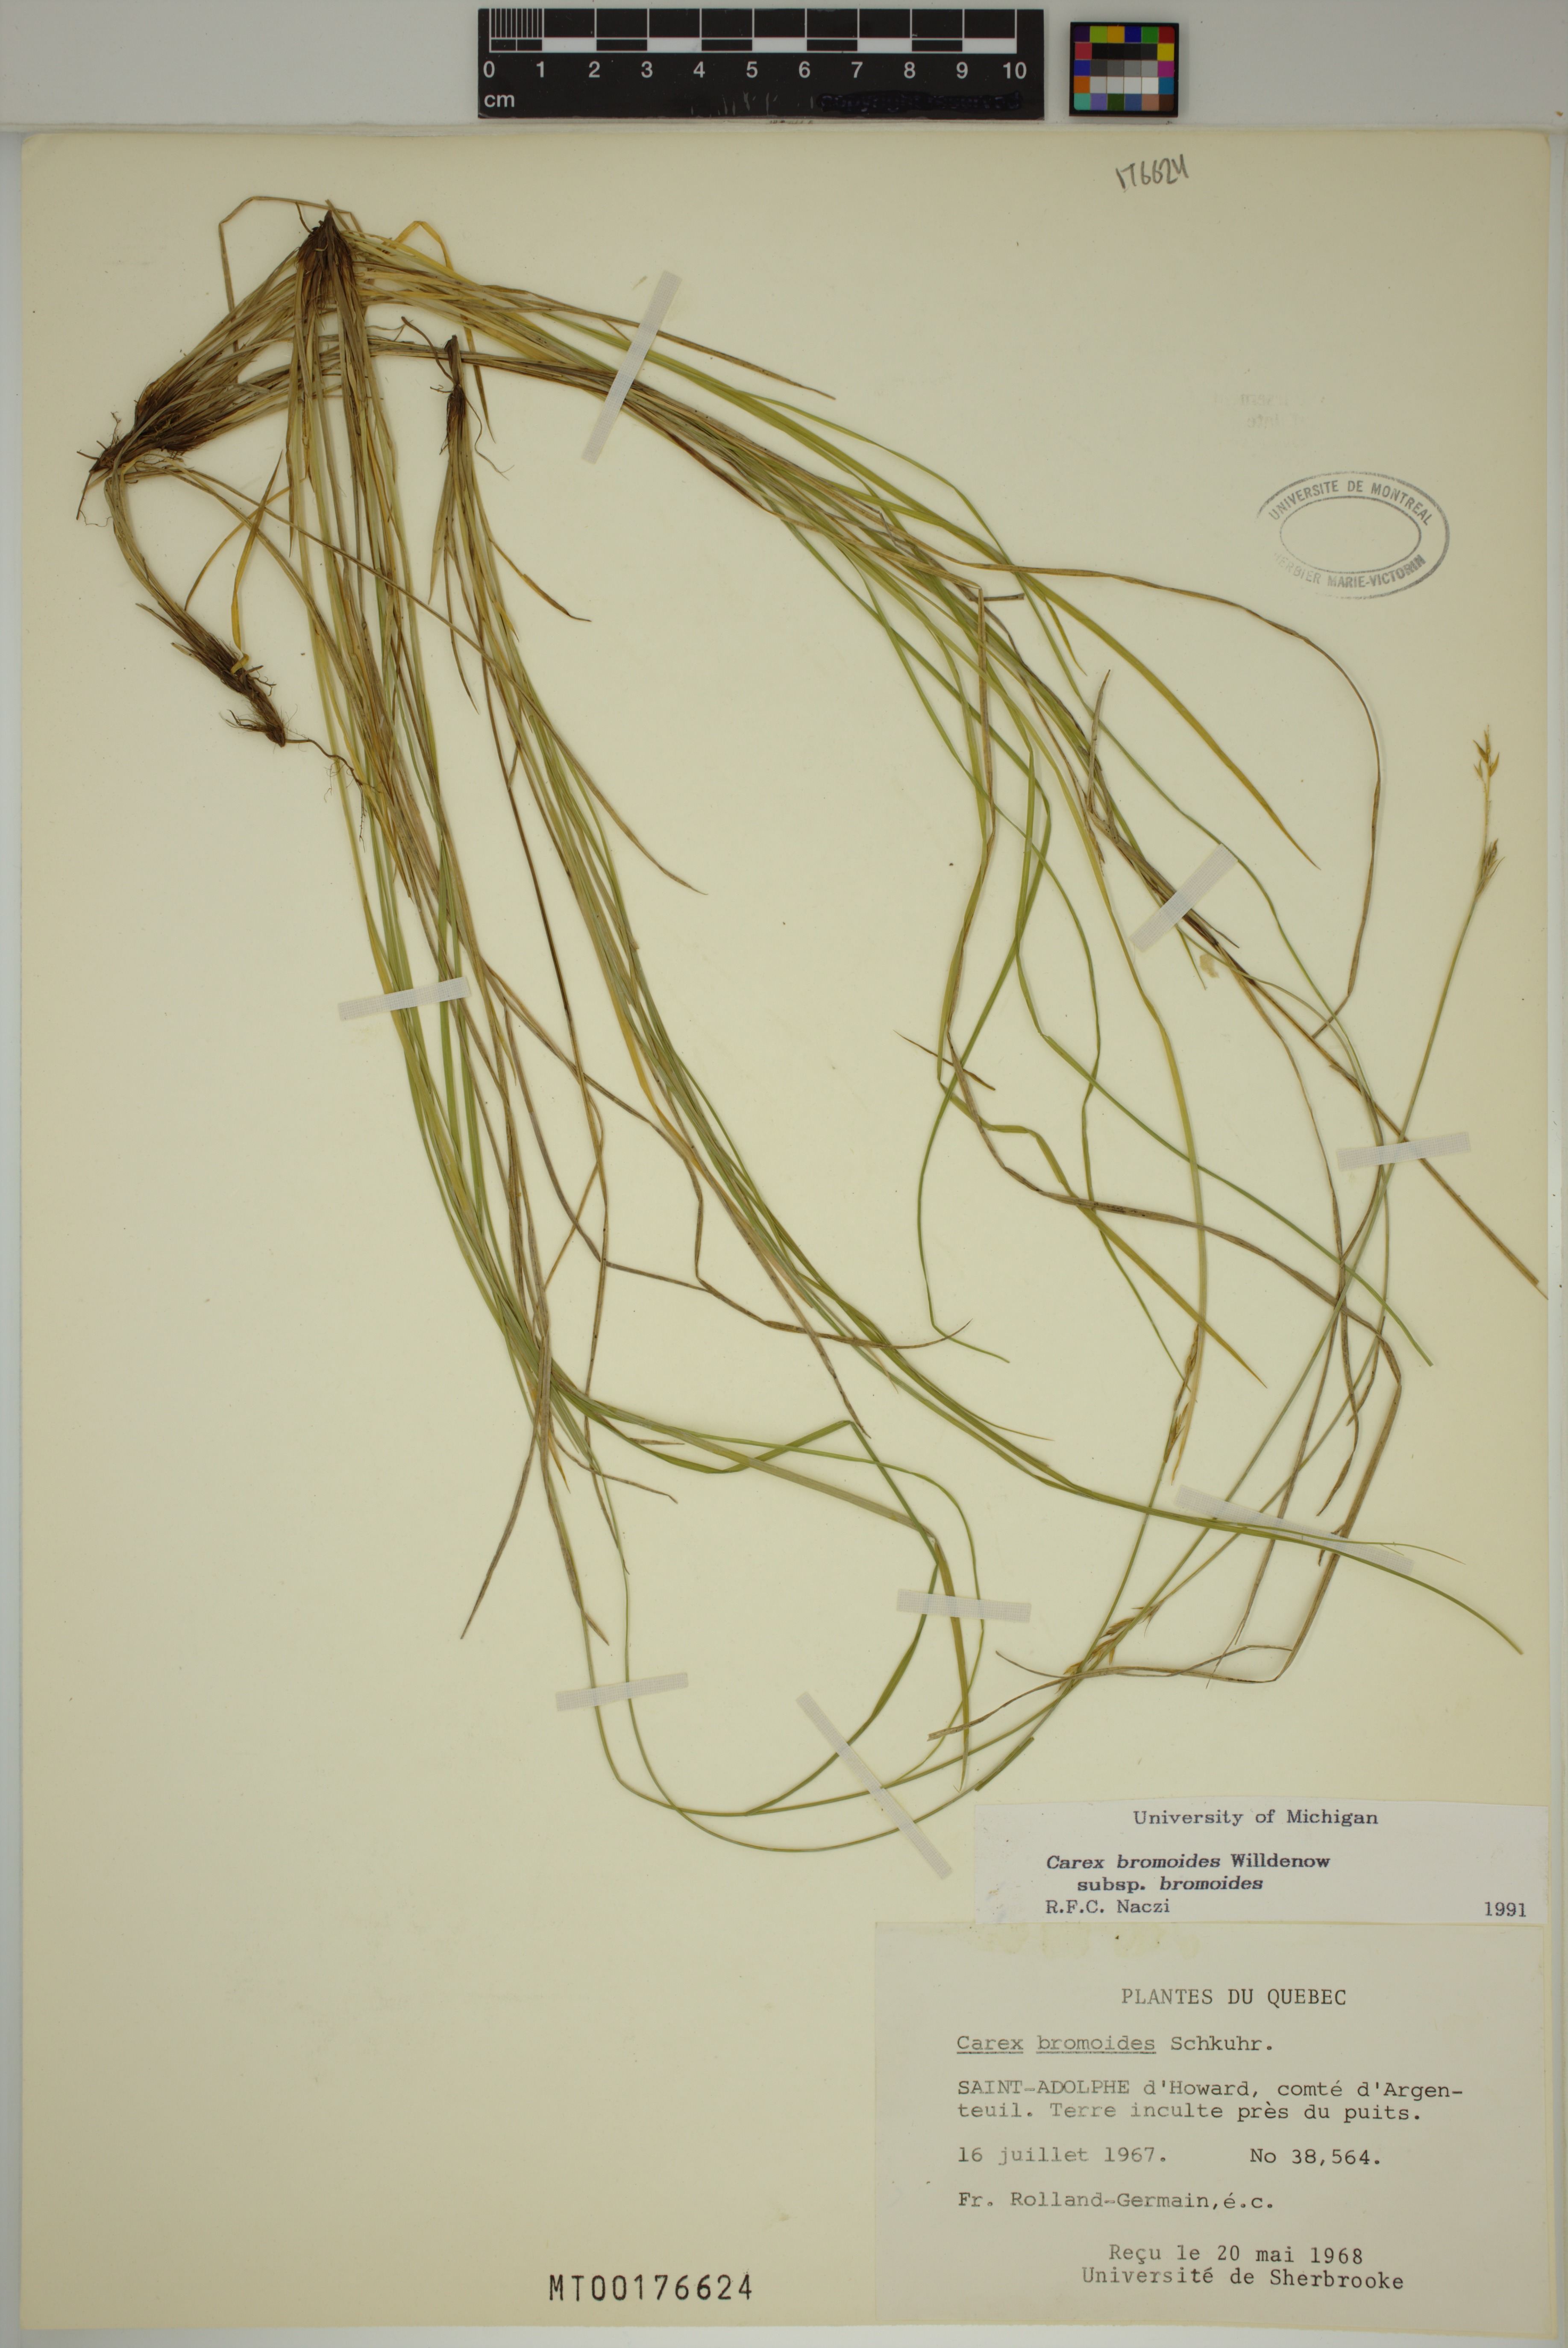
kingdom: Plantae
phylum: Tracheophyta
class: Liliopsida
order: Poales
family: Cyperaceae
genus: Carex
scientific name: Carex bromoides
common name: Brome hummock sedge
